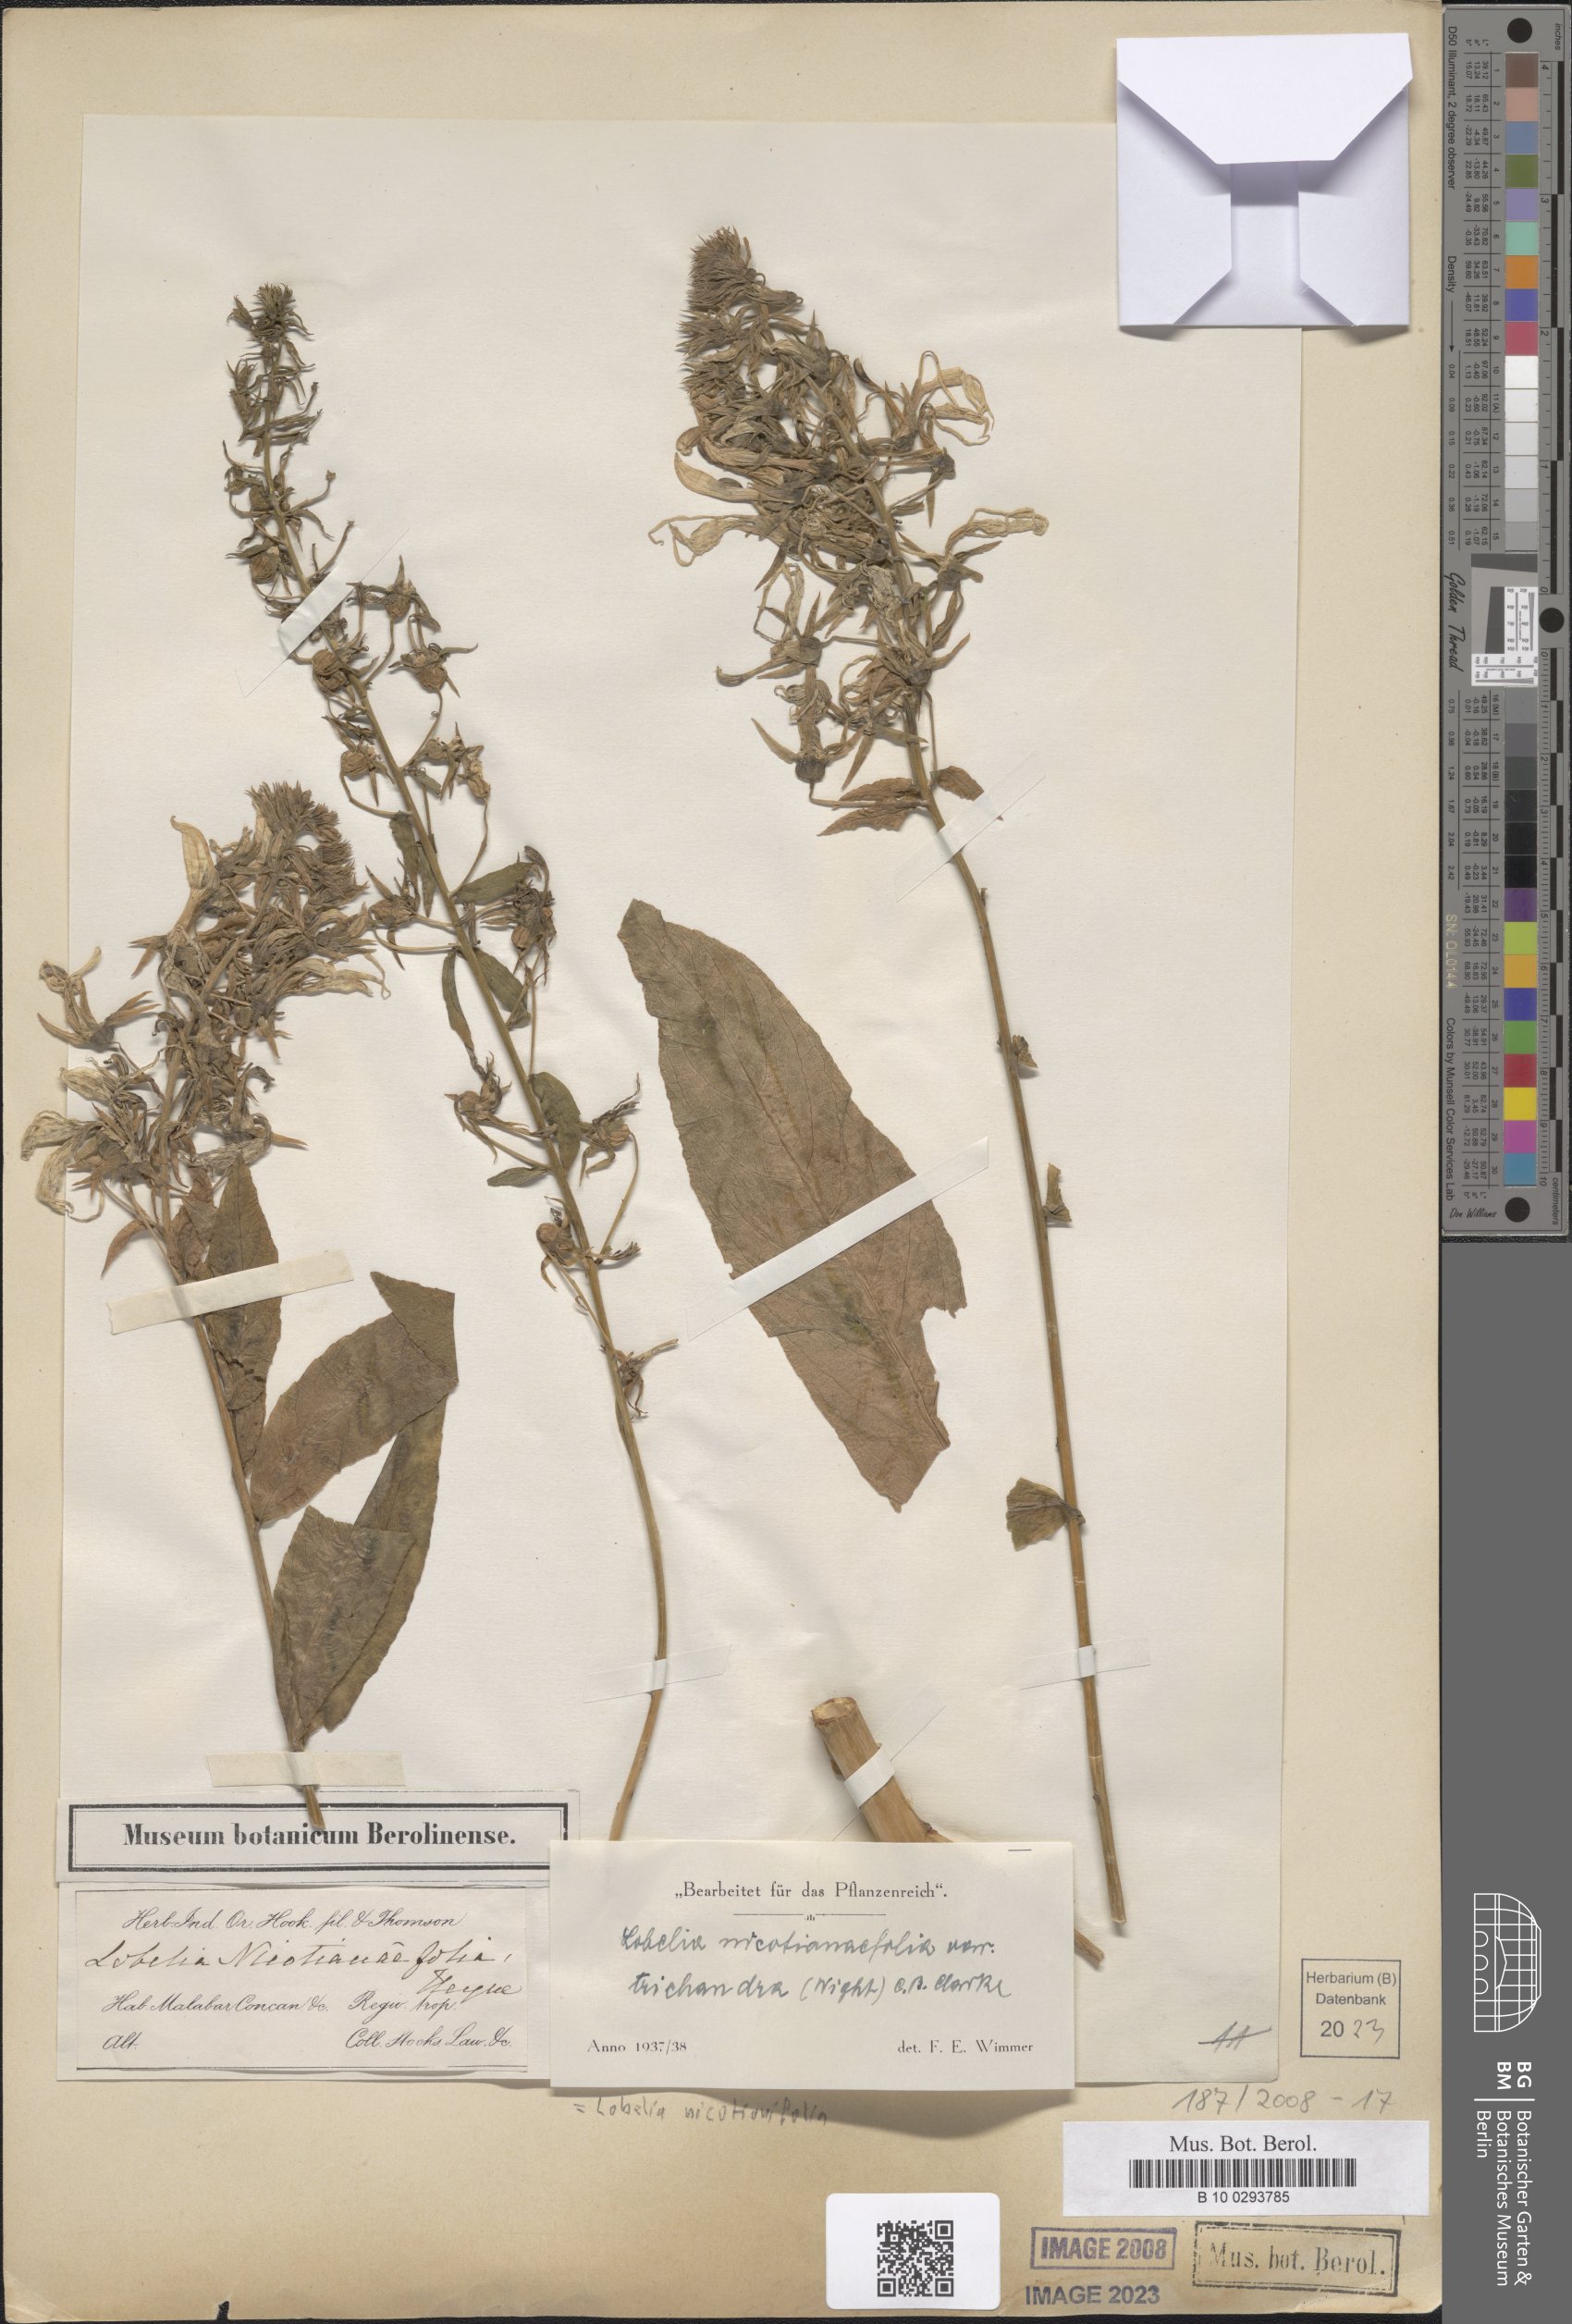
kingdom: Plantae
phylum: Tracheophyta
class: Magnoliopsida
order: Asterales
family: Campanulaceae
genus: Lobelia
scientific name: Lobelia nicotianifolia
